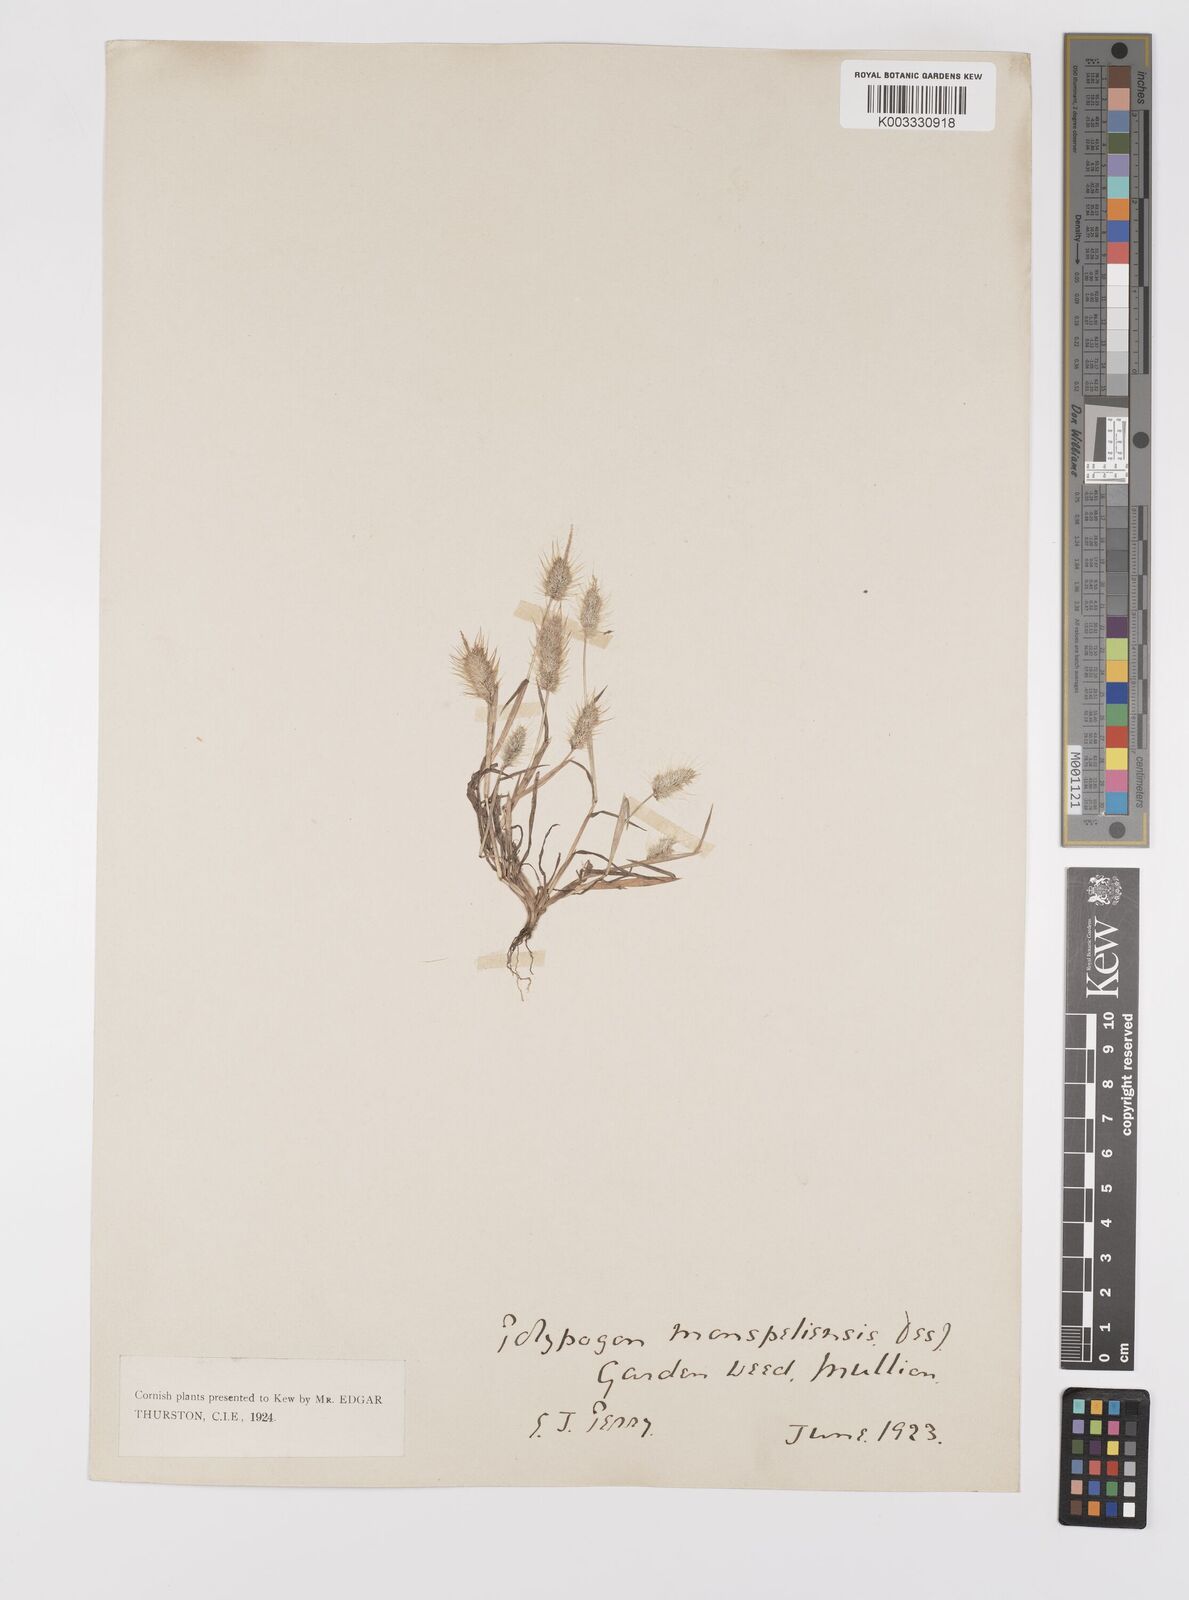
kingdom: Plantae
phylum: Tracheophyta
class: Liliopsida
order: Poales
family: Poaceae
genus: Polypogon
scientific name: Polypogon monspeliensis
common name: Annual rabbitsfoot grass
